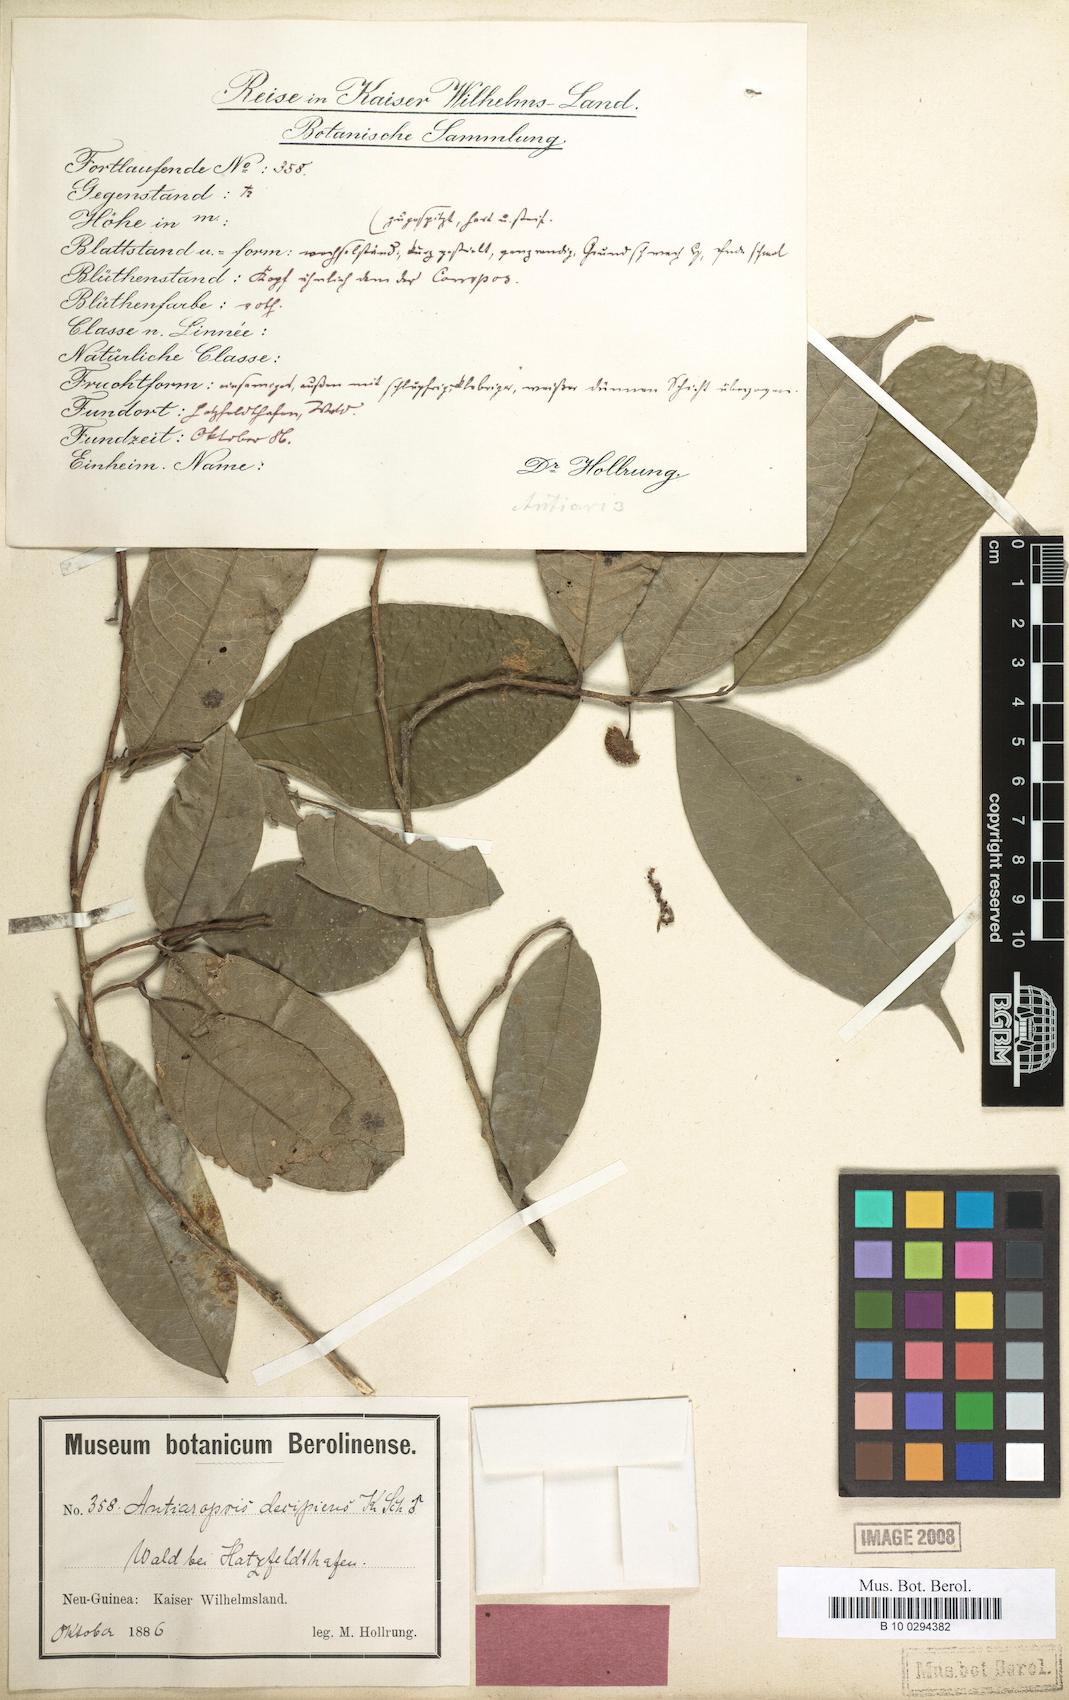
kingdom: Plantae
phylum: Tracheophyta
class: Magnoliopsida
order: Rosales
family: Moraceae
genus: Antiaropsis
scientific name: Antiaropsis decipiens
